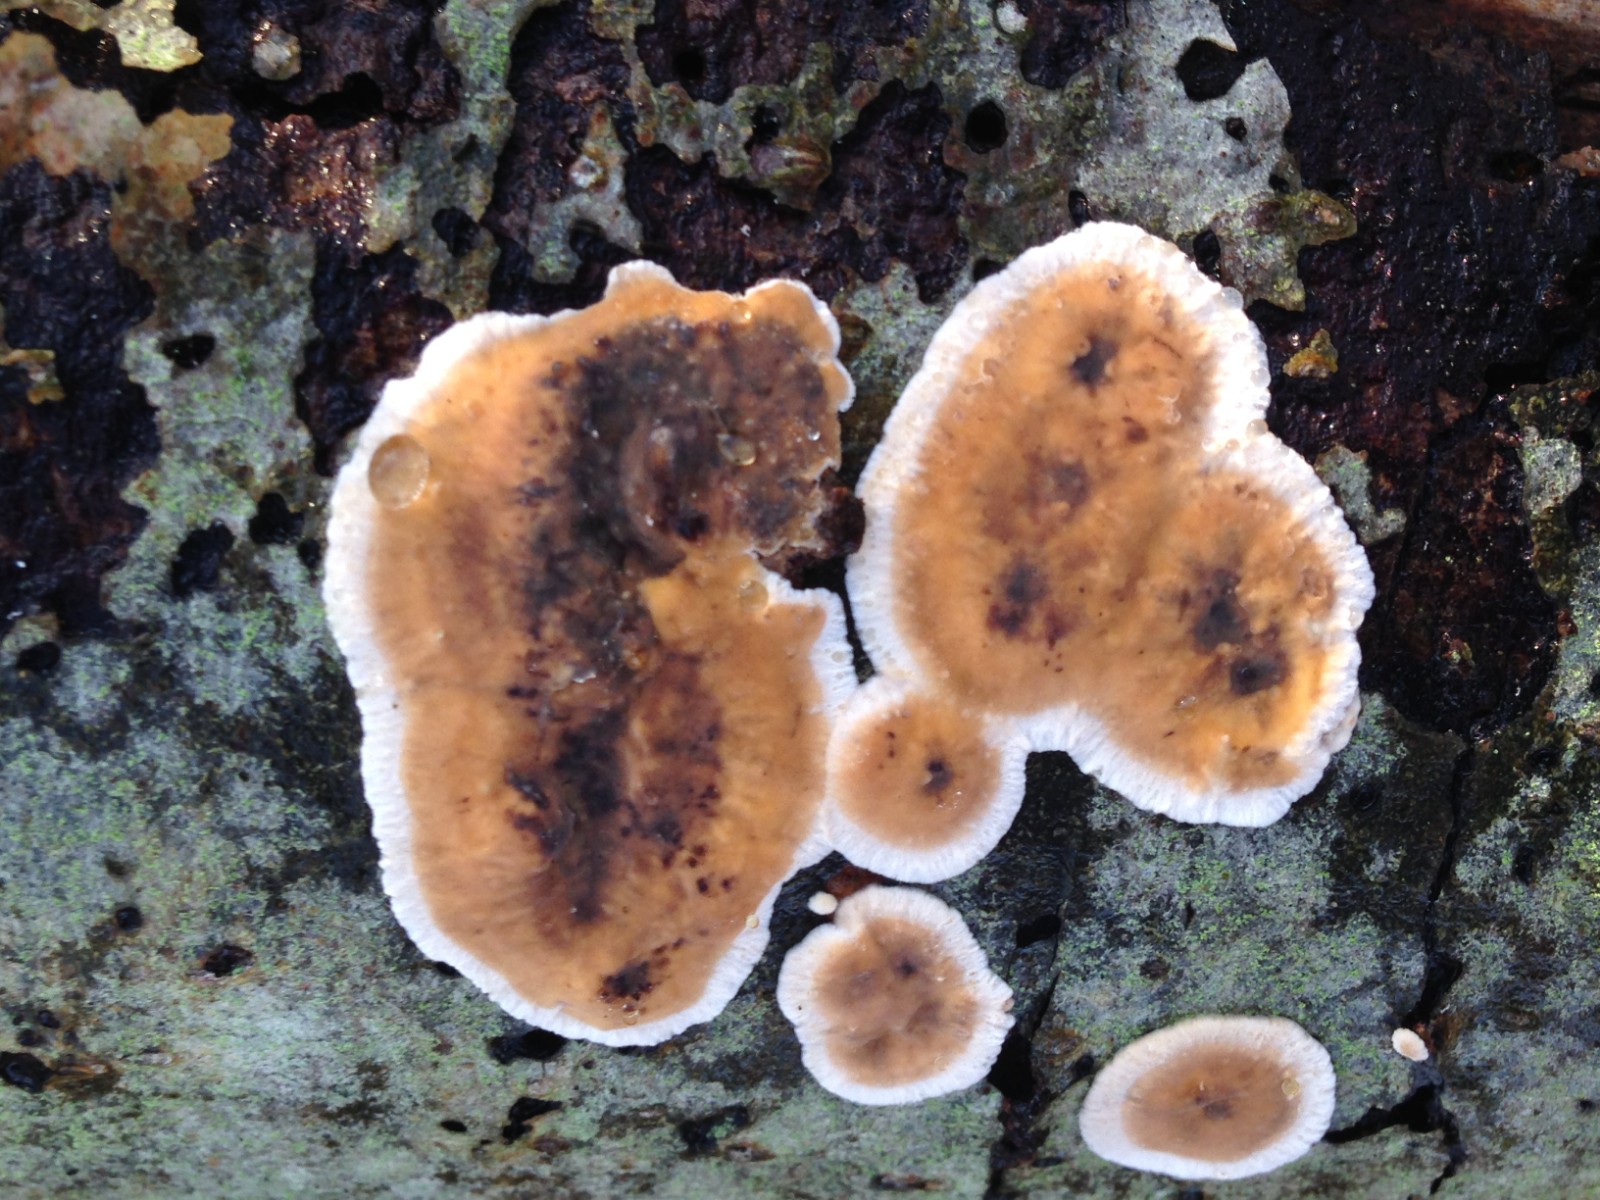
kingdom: Fungi
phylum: Basidiomycota
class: Agaricomycetes
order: Russulales
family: Stereaceae
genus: Stereum
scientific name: Stereum
